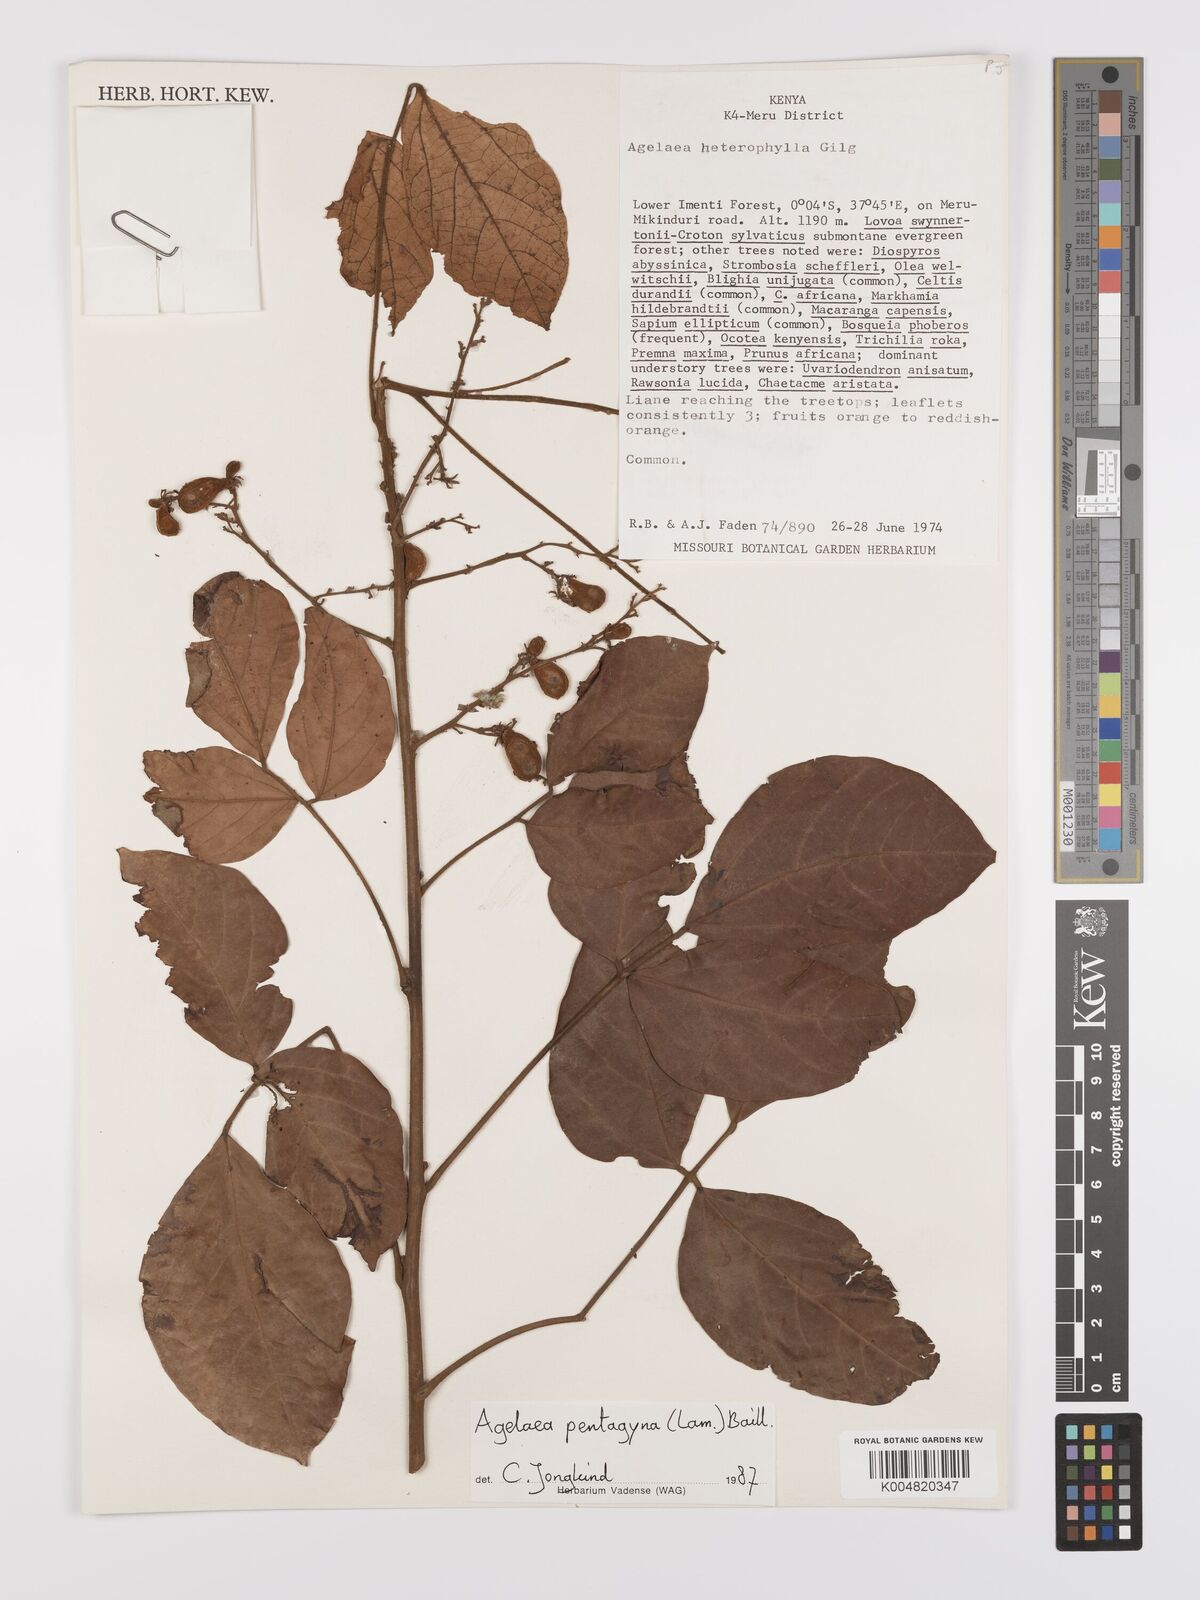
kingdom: Plantae
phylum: Tracheophyta
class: Magnoliopsida
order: Oxalidales
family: Connaraceae
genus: Agelaea
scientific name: Agelaea pentagyna
